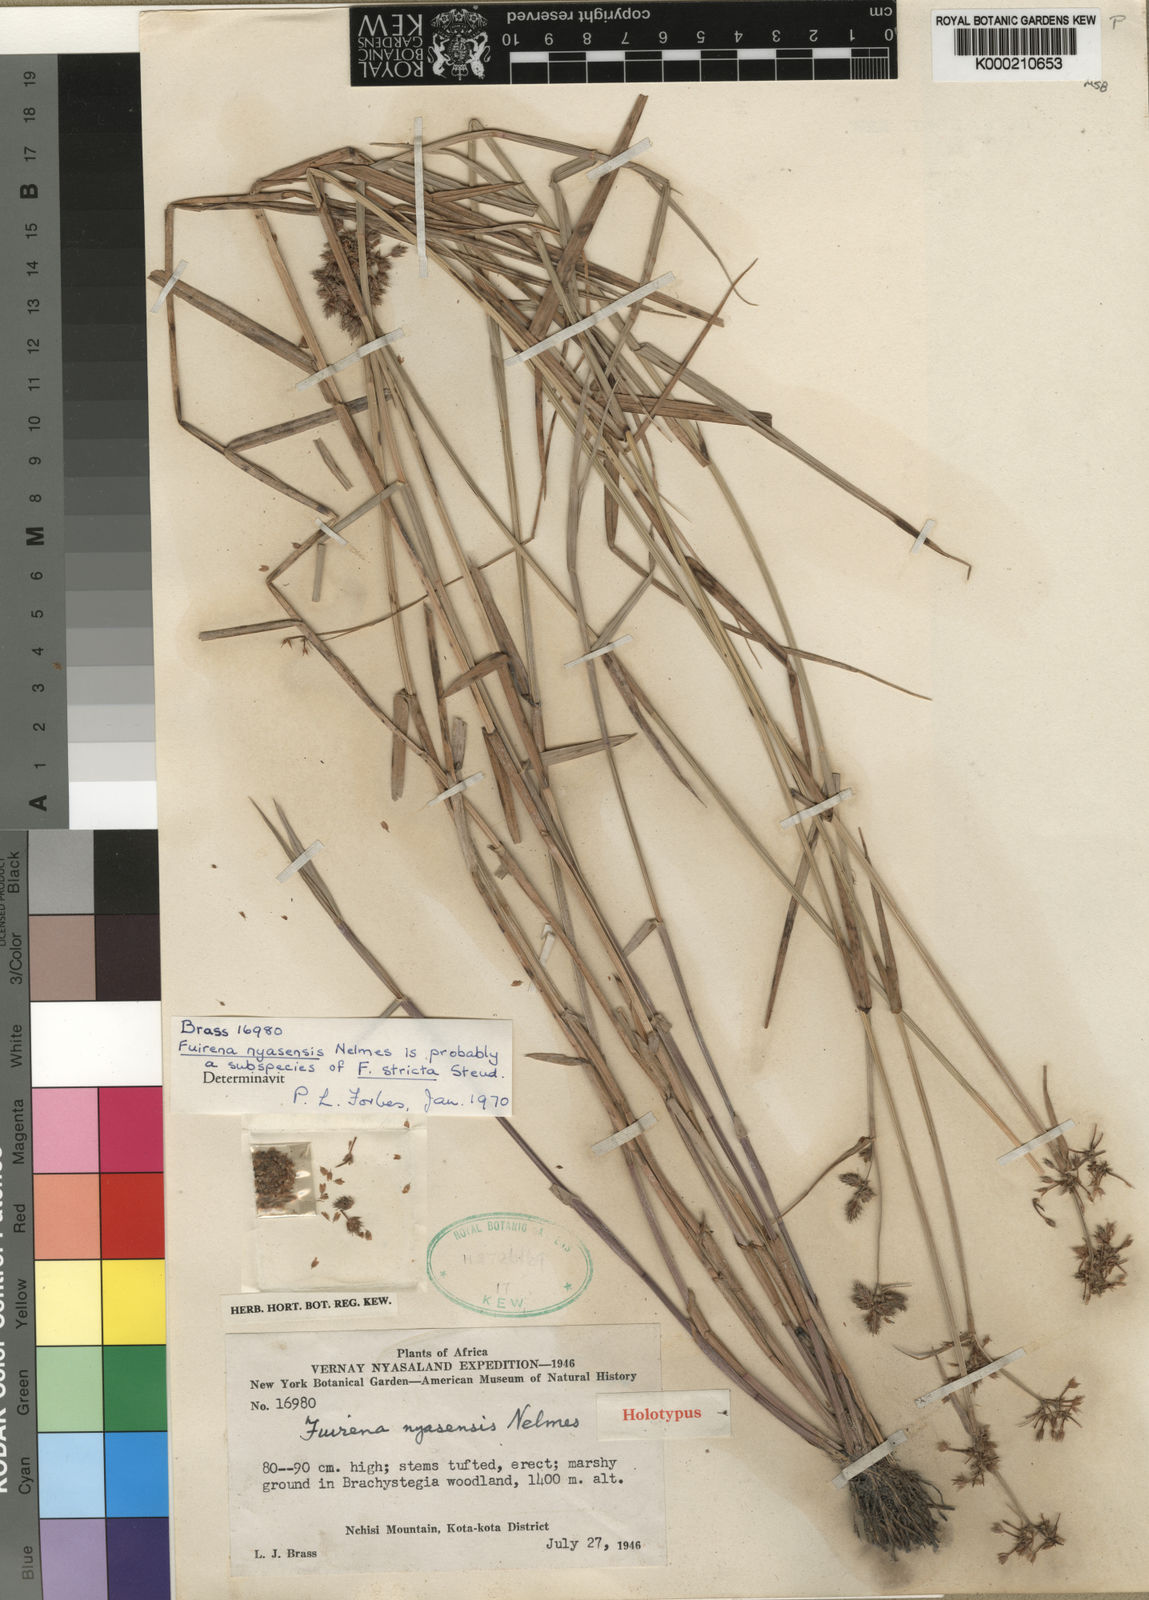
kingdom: Plantae
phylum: Tracheophyta
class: Liliopsida
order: Poales
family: Cyperaceae
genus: Fuirena
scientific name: Fuirena nyasensis
